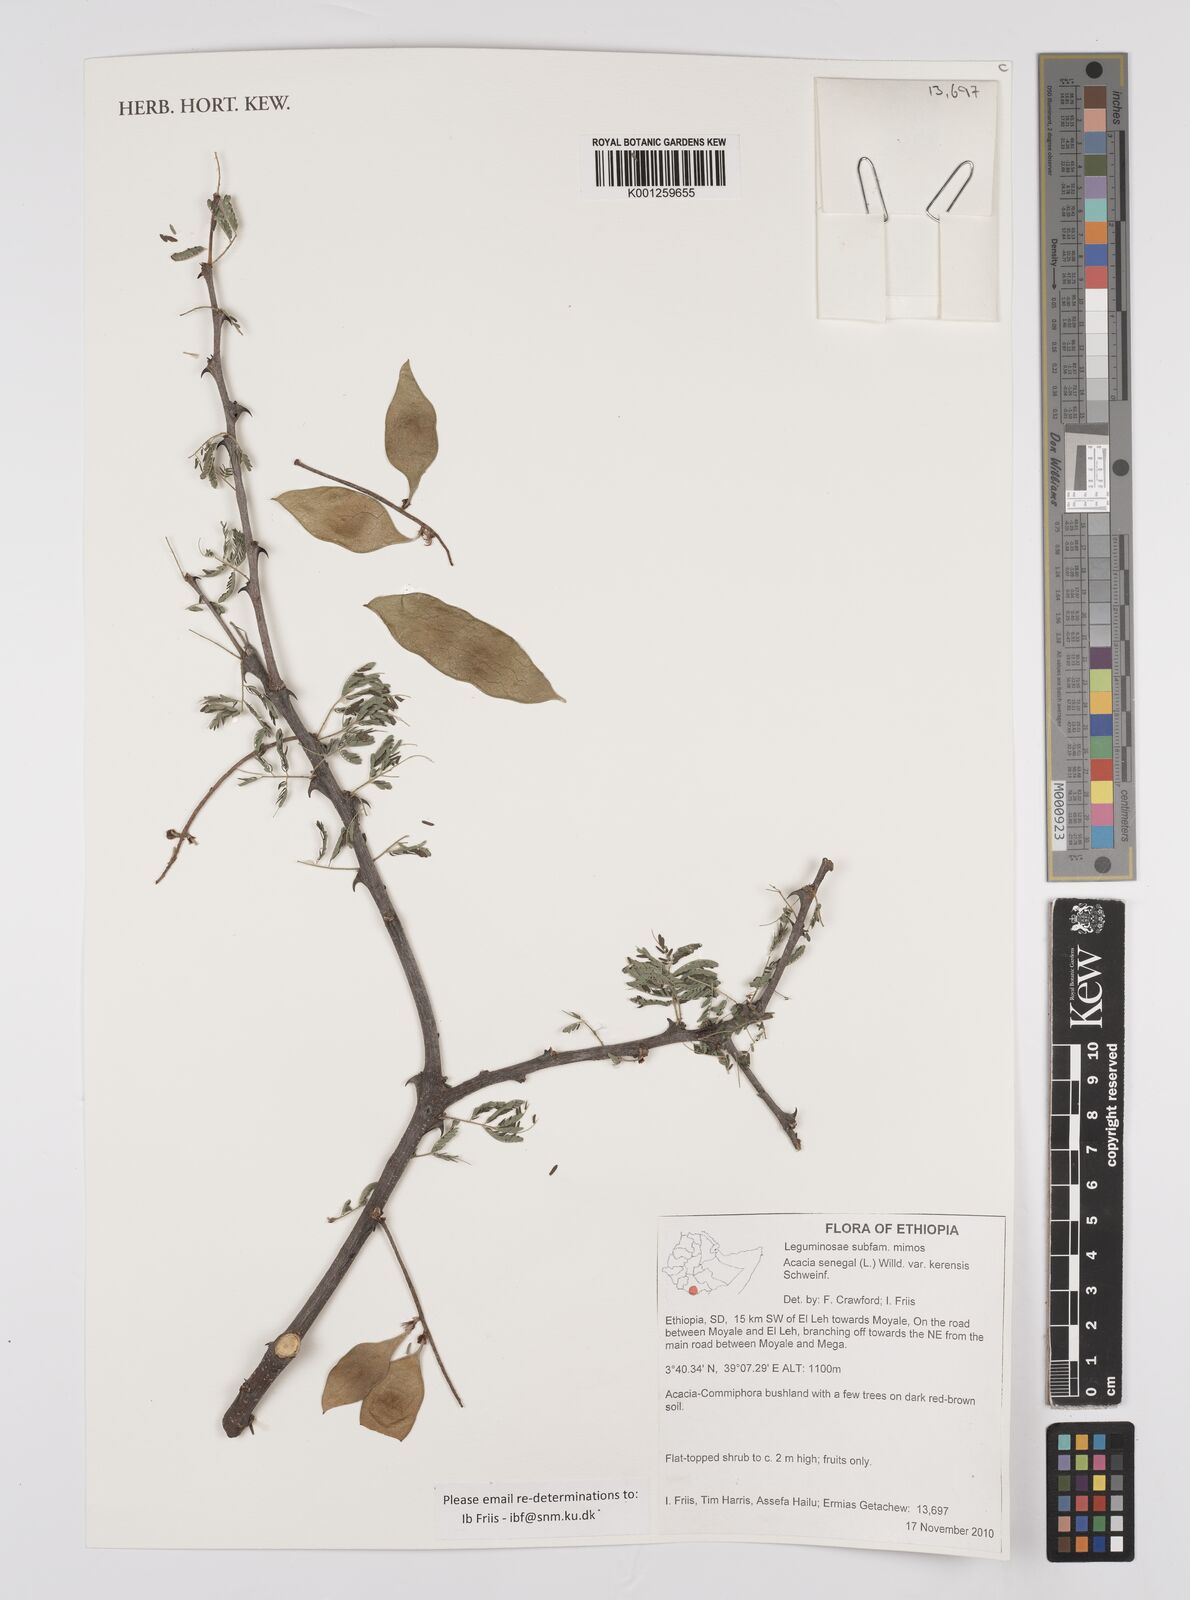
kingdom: Plantae
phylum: Tracheophyta
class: Magnoliopsida
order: Fabales
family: Fabaceae
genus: Senegalia
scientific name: Senegalia senegal
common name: Senegal-gum
